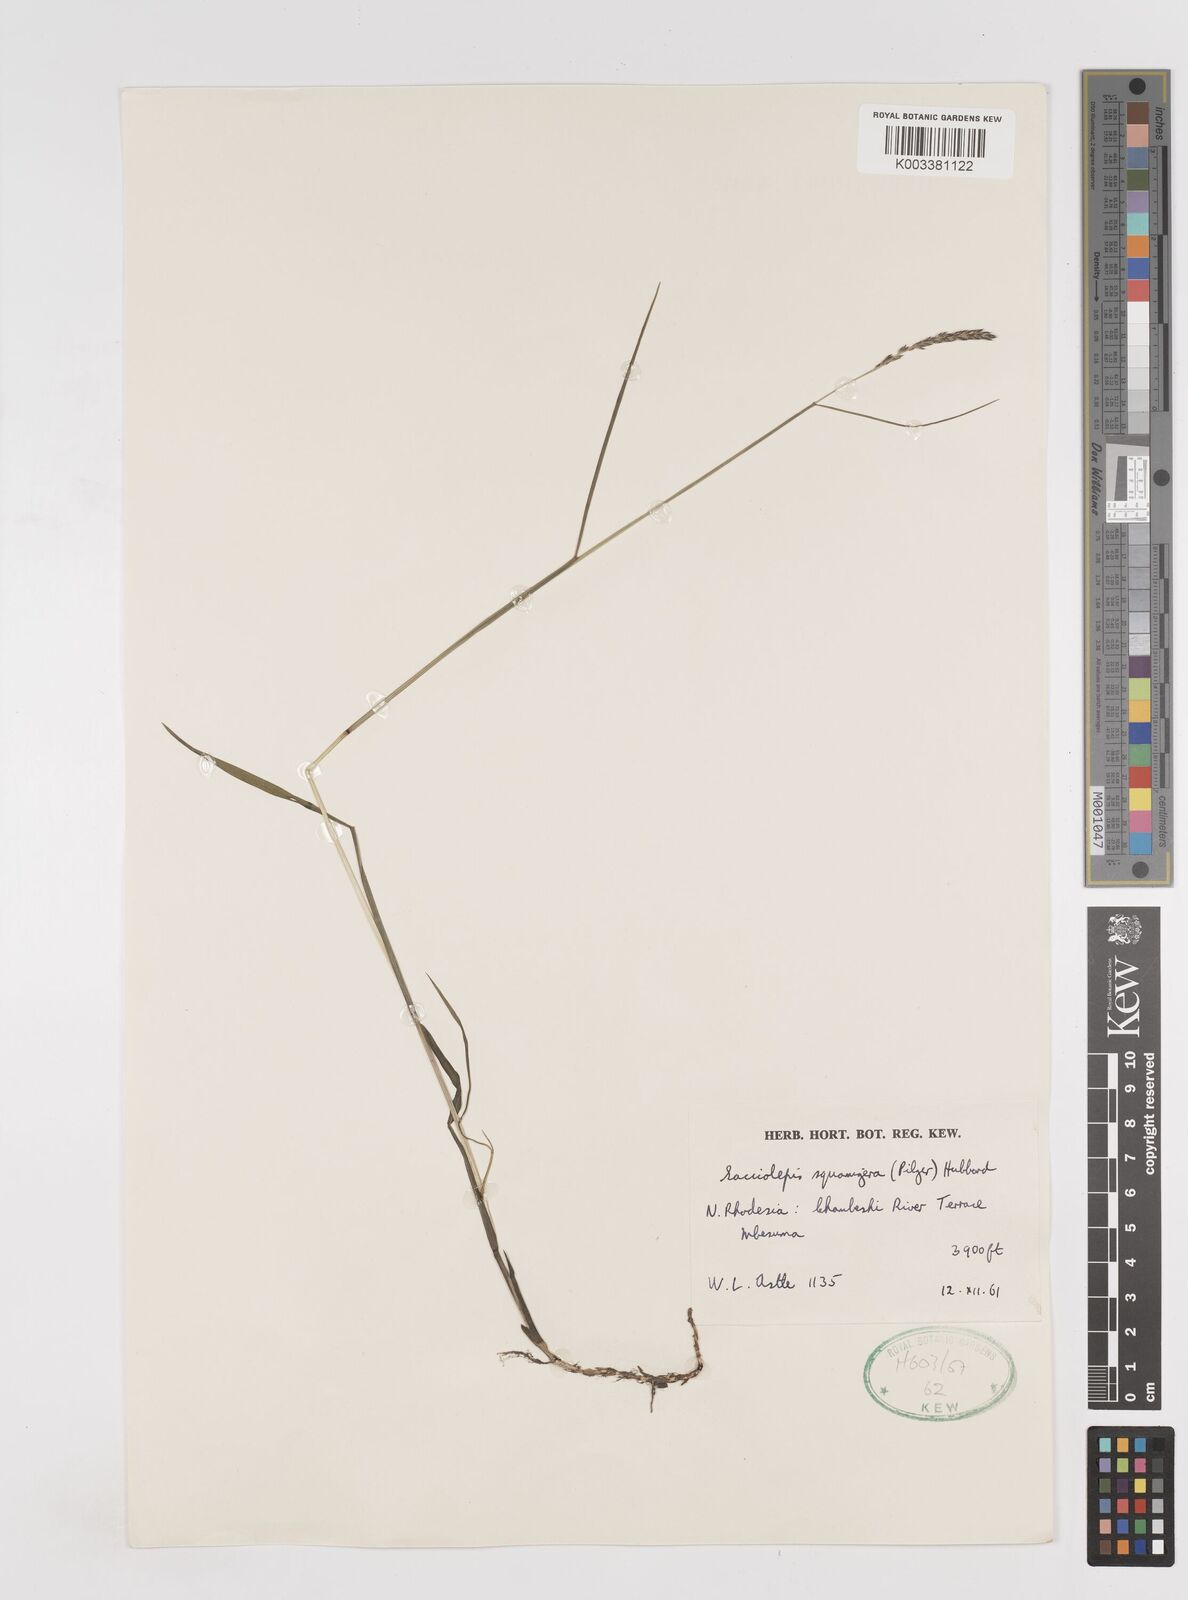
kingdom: Plantae
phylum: Tracheophyta
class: Liliopsida
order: Poales
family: Poaceae
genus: Sacciolepis
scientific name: Sacciolepis leptorrhachis
